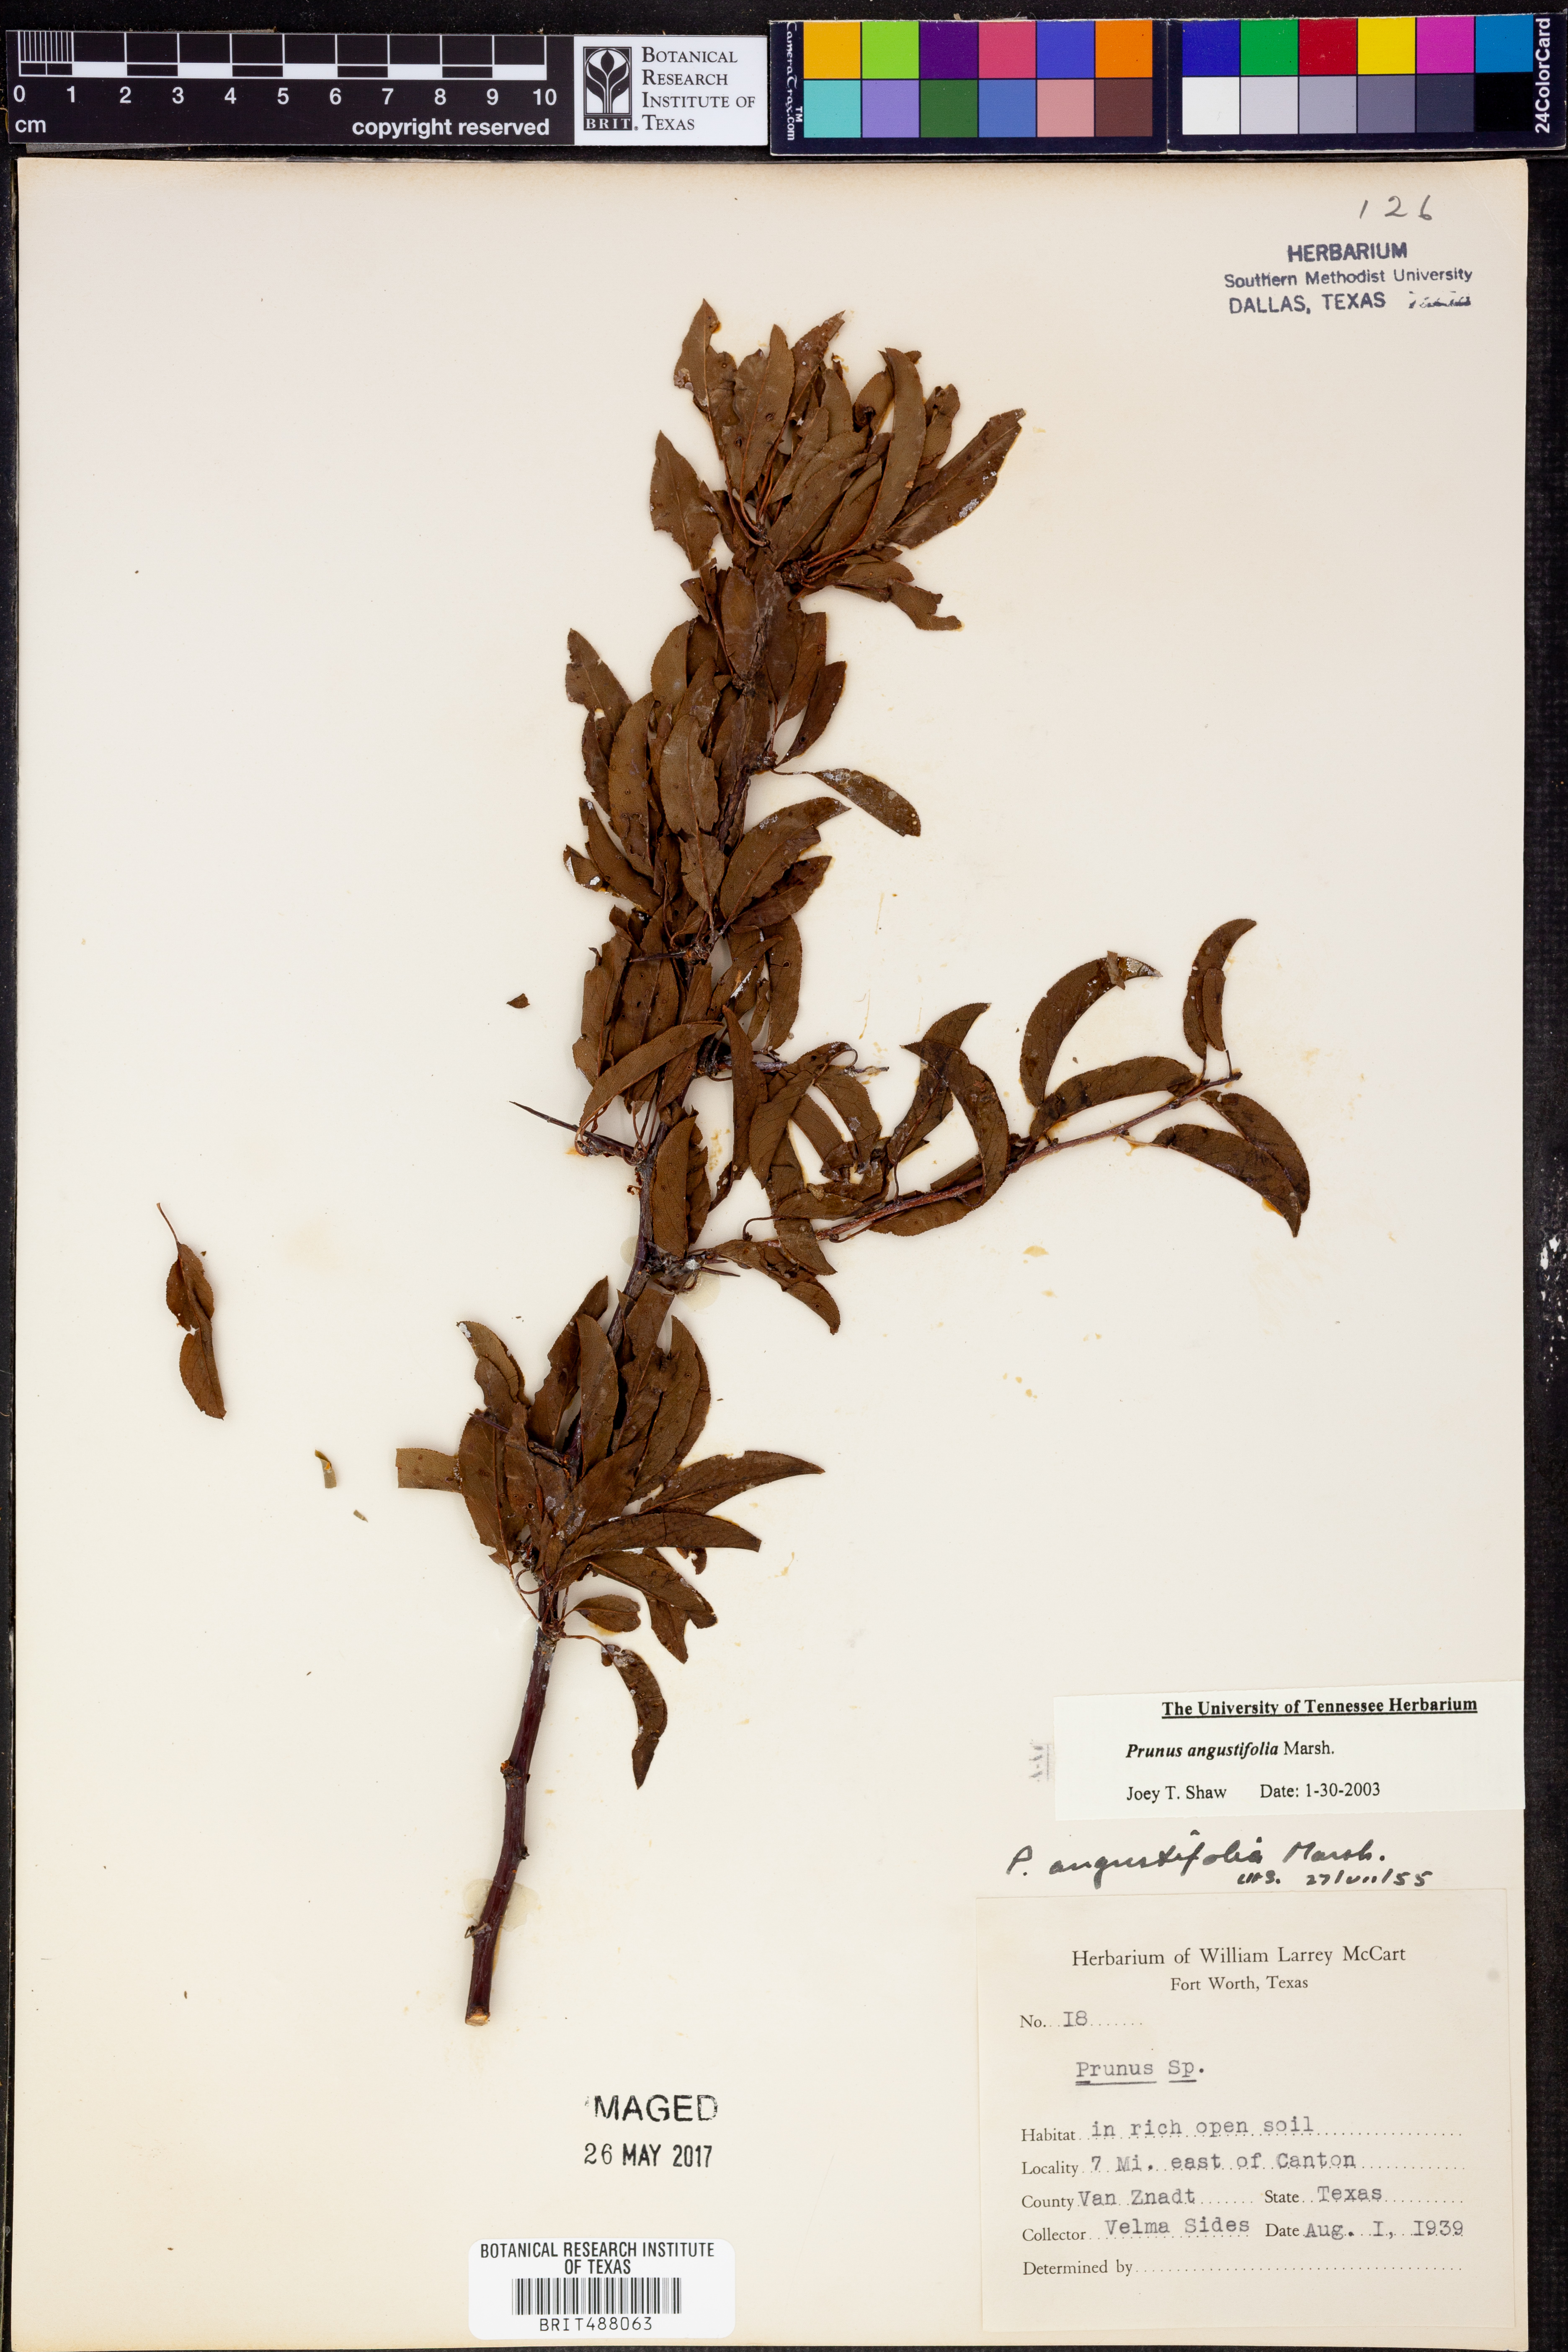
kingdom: Plantae
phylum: Tracheophyta
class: Magnoliopsida
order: Rosales
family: Rosaceae
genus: Prunus
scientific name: Prunus angustifolia
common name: Cherokee plum
